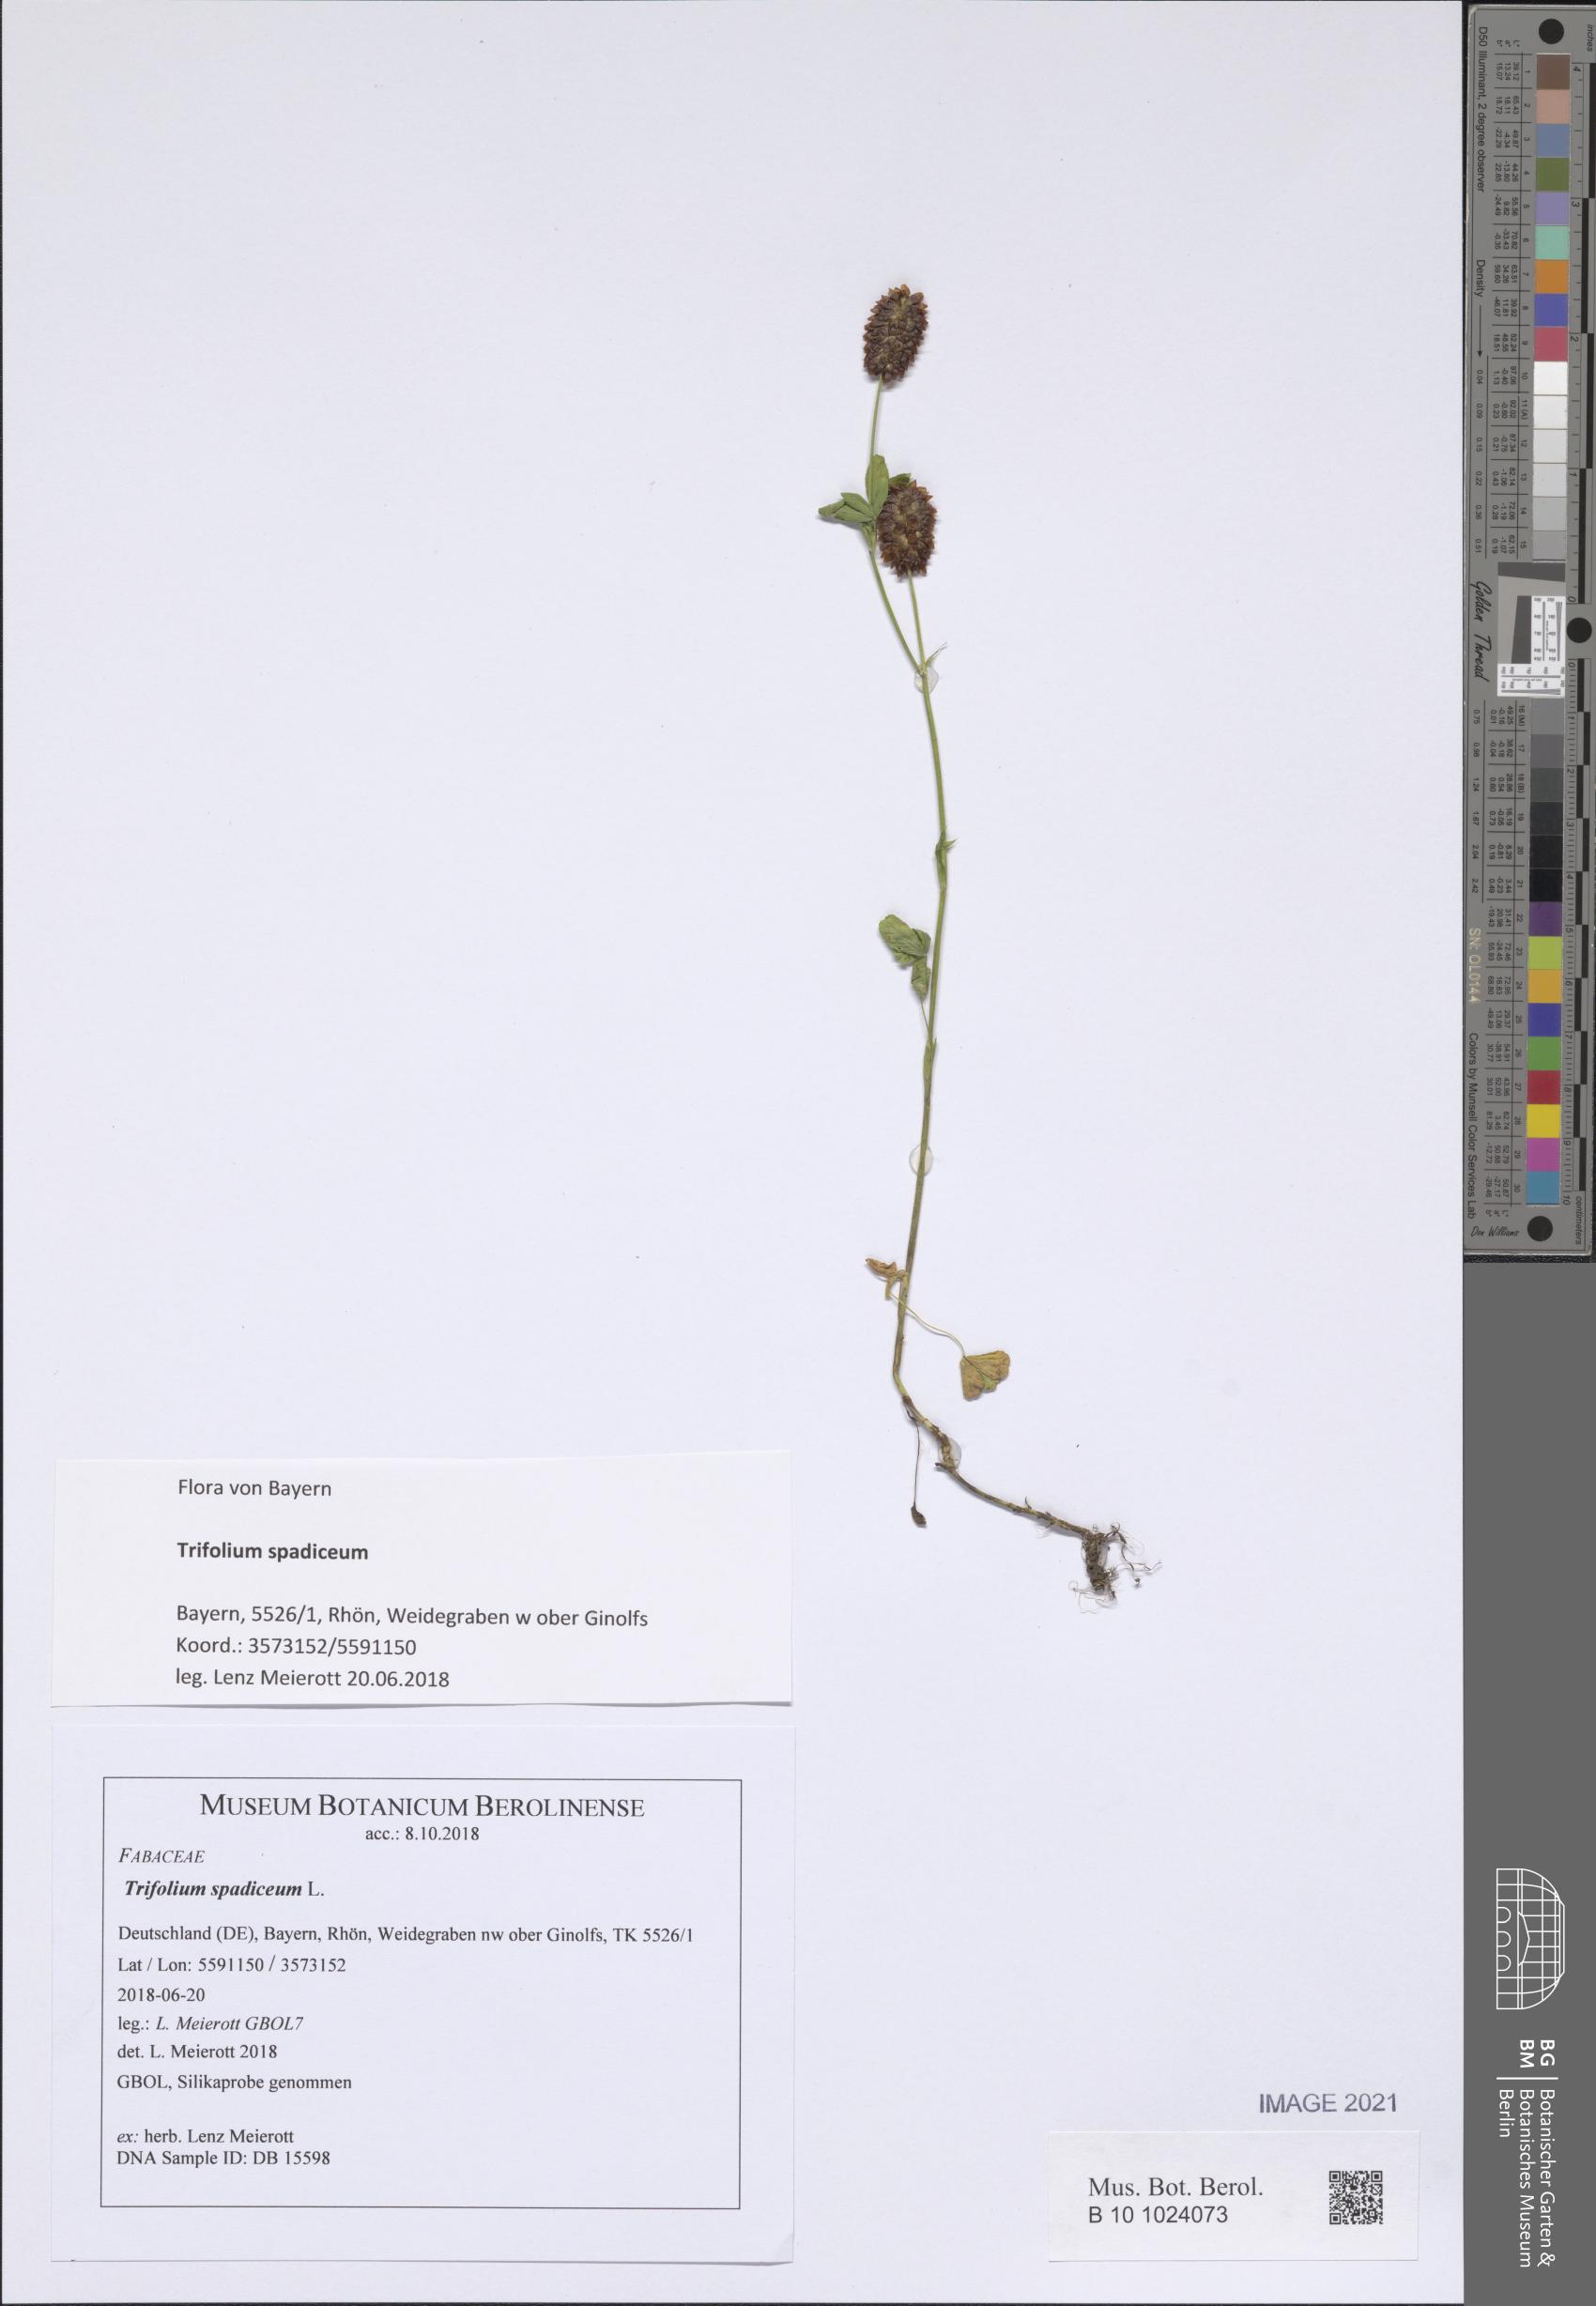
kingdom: Plantae
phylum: Tracheophyta
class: Magnoliopsida
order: Fabales
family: Fabaceae
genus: Trifolium
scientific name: Trifolium spadiceum
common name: Brown moor clover
